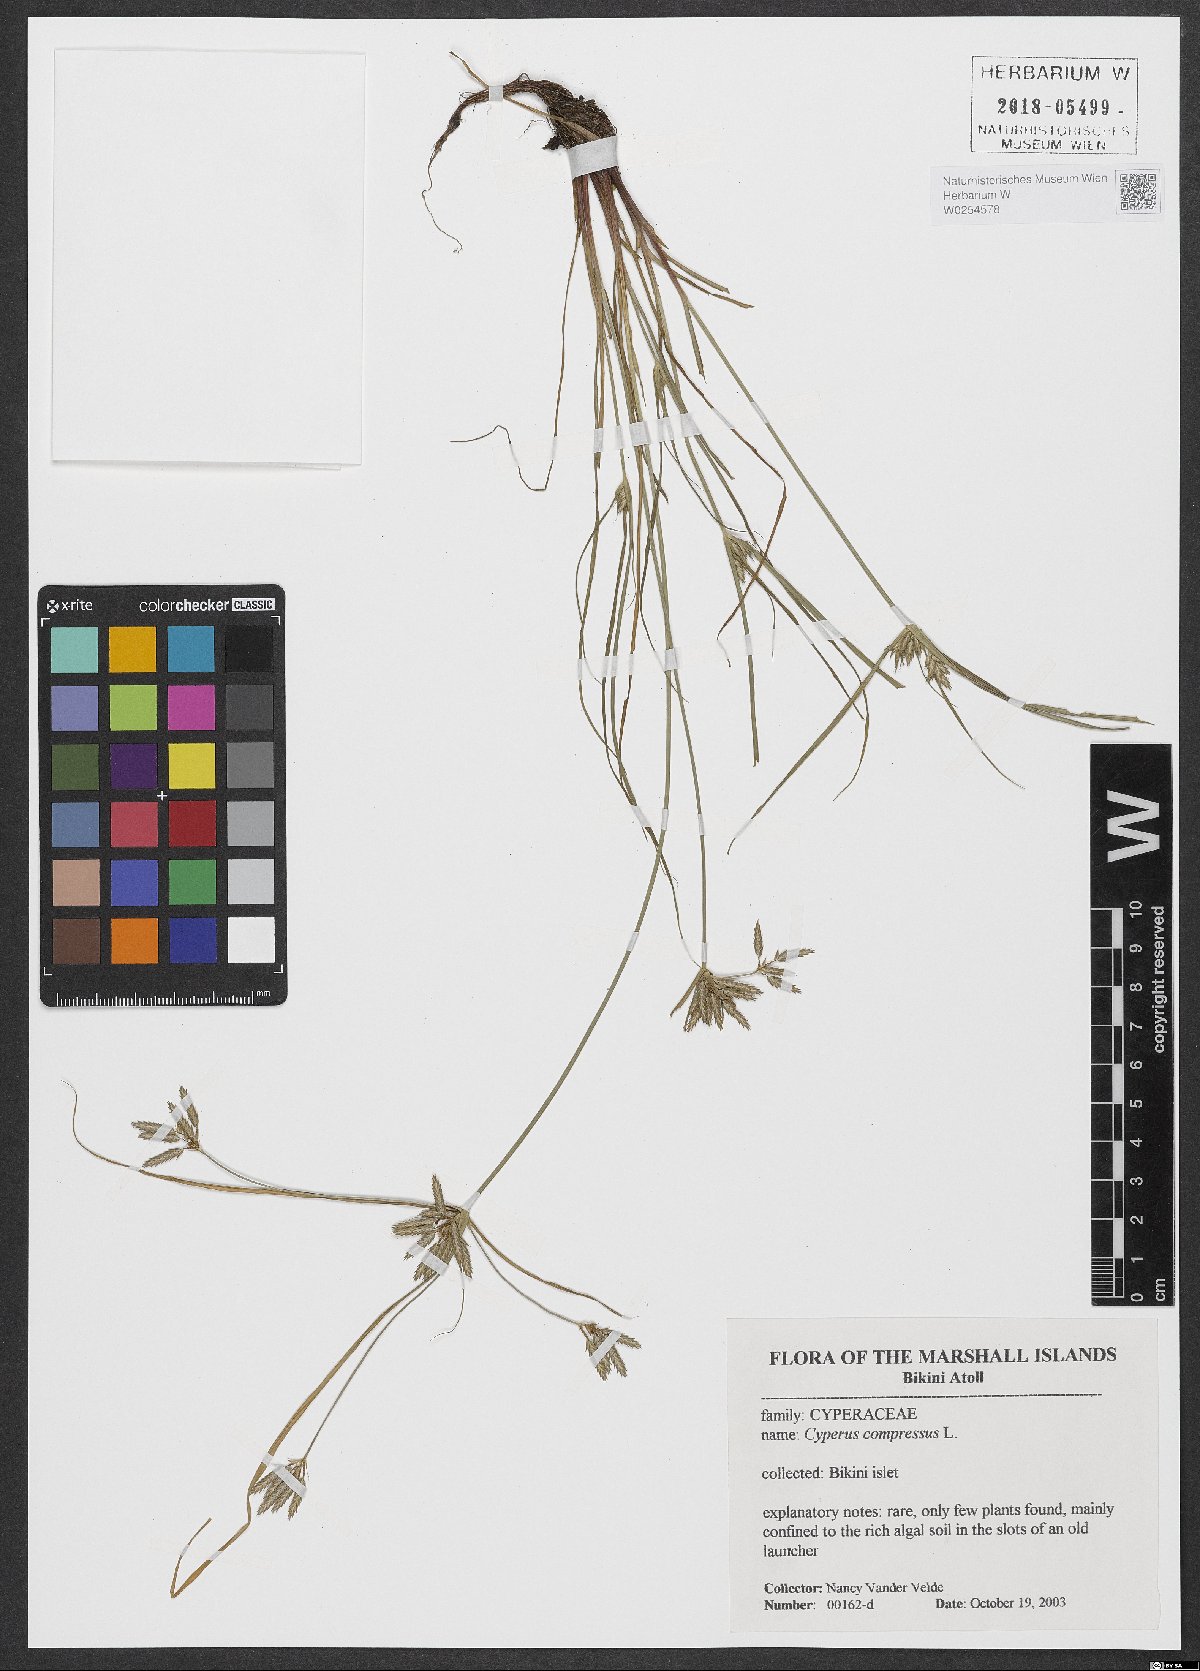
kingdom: Plantae
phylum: Tracheophyta
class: Liliopsida
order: Poales
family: Cyperaceae
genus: Cyperus
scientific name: Cyperus compressus
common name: Poorland flatsedge
